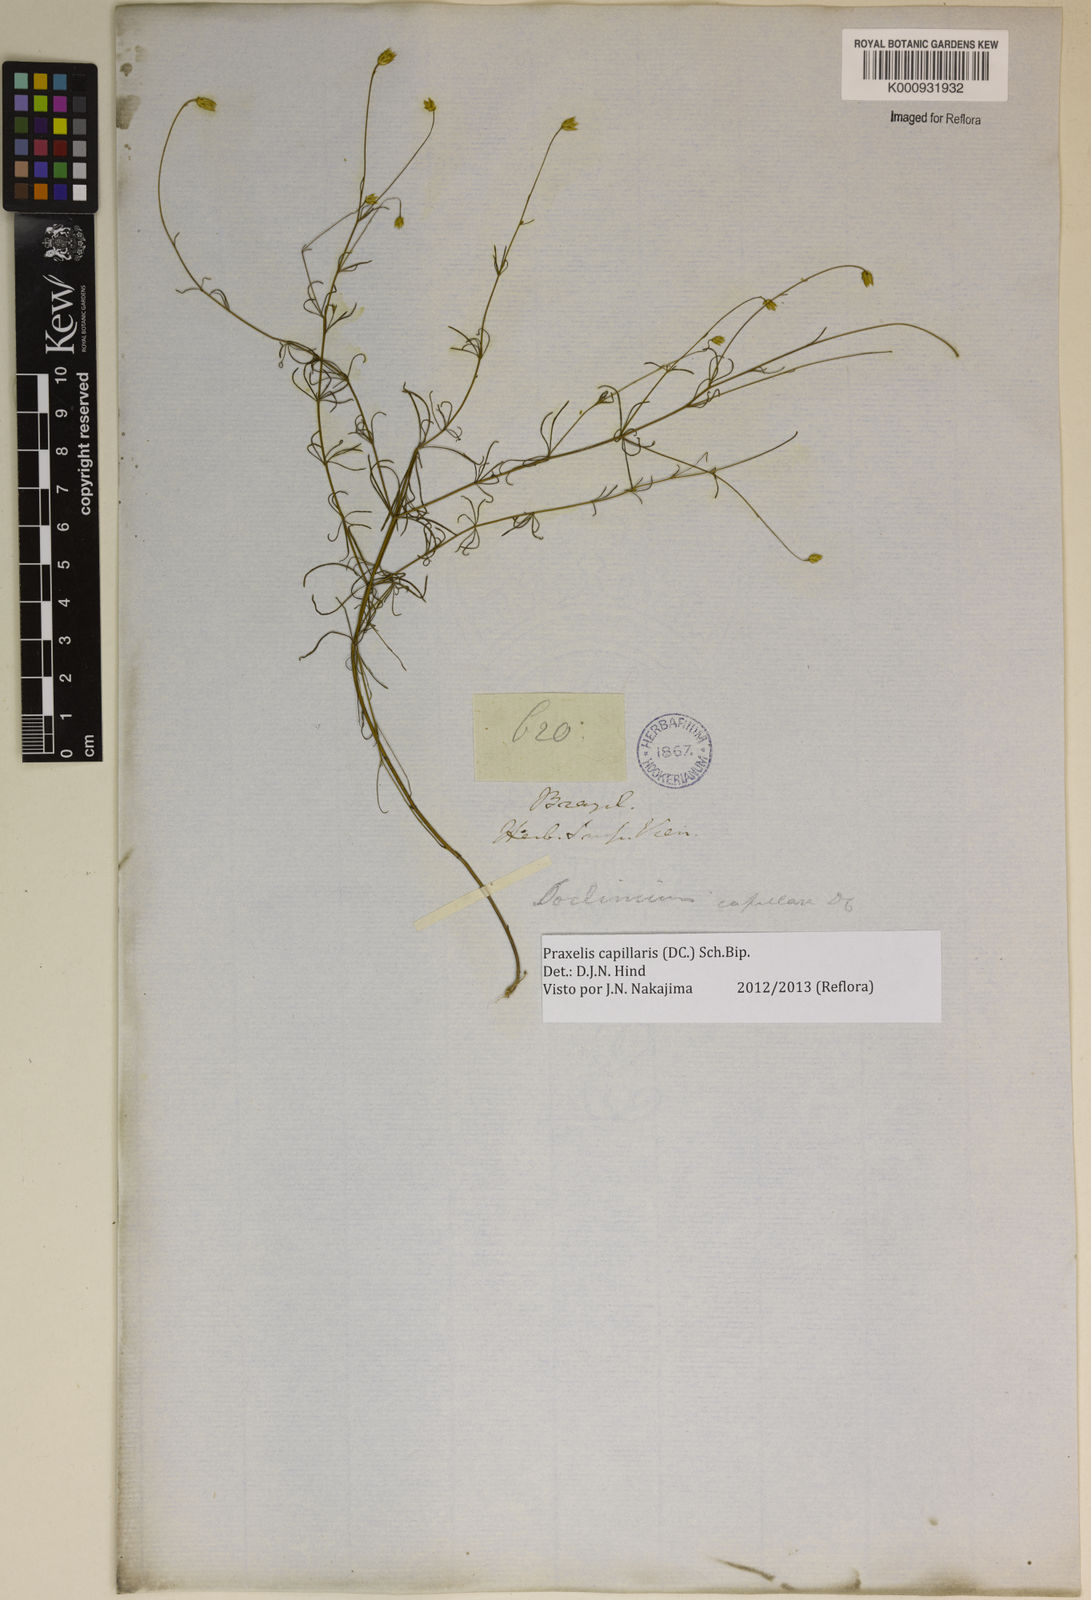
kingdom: Plantae
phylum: Tracheophyta
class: Magnoliopsida
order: Asterales
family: Asteraceae
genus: Praxelis
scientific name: Praxelis capillaris
